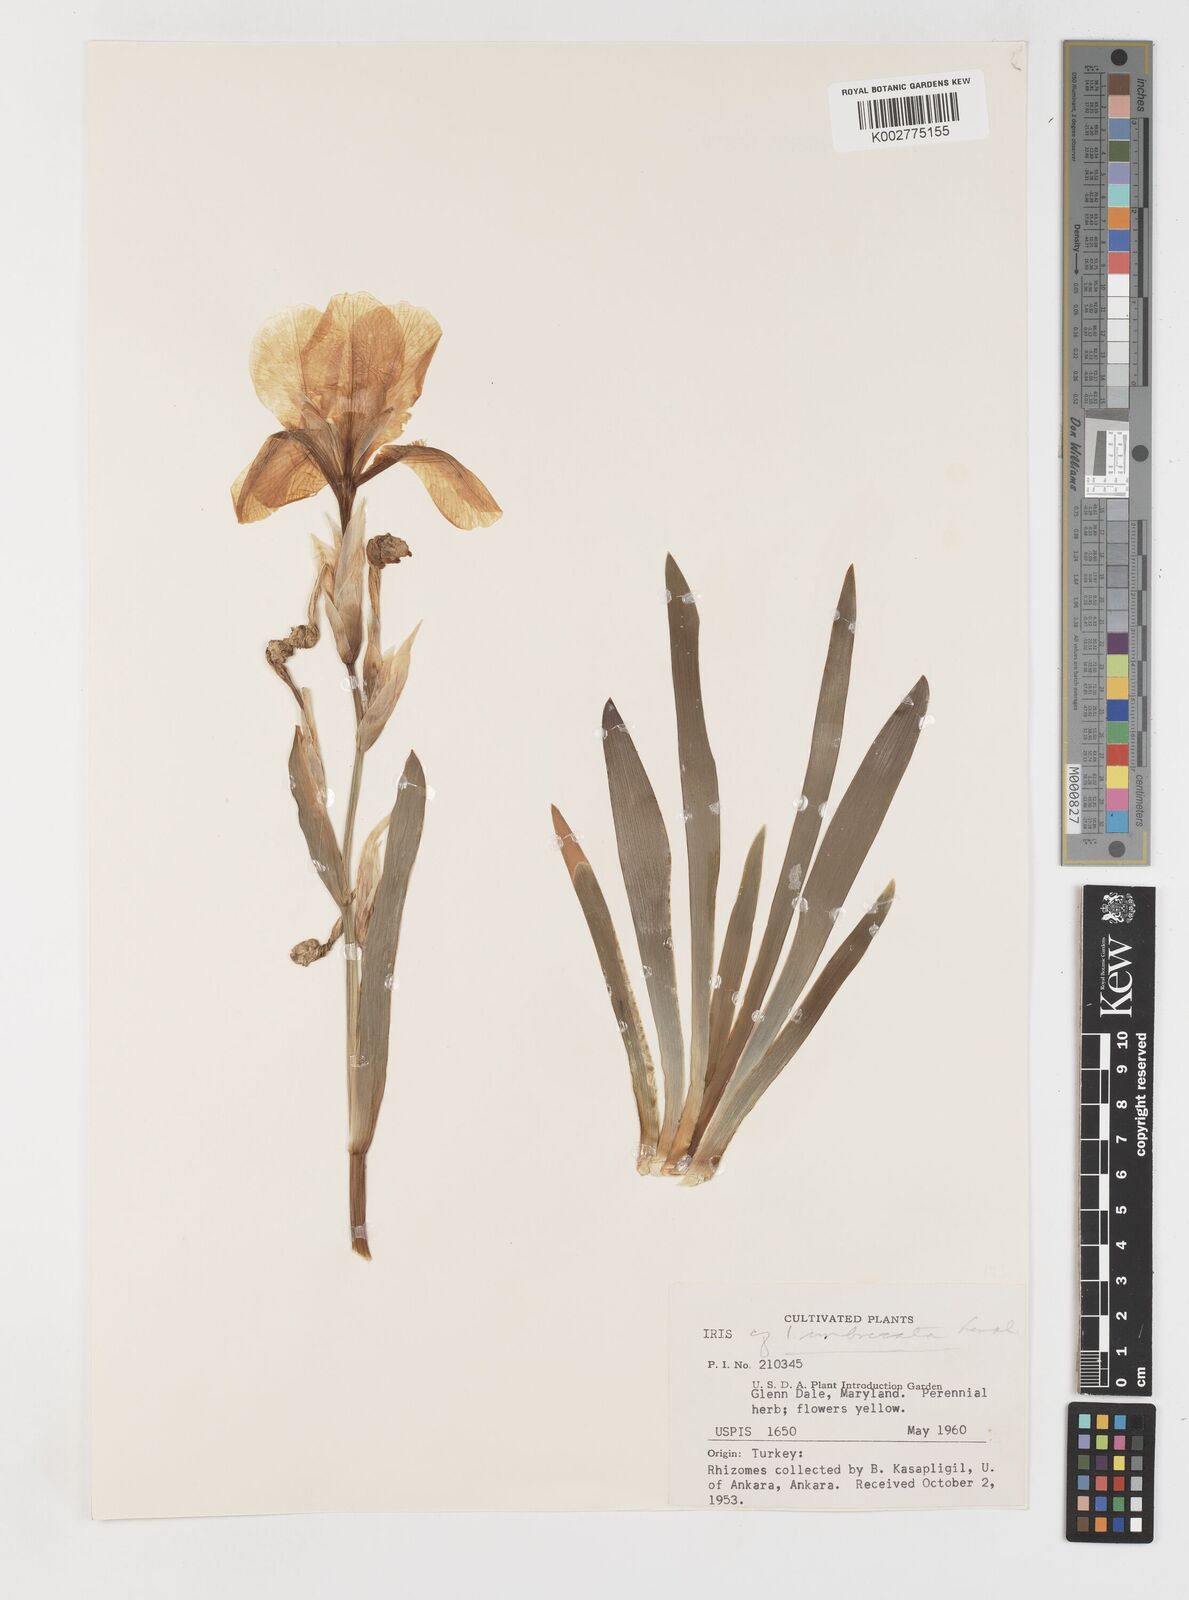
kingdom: Plantae
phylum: Tracheophyta
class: Liliopsida
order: Asparagales
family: Iridaceae
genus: Iris
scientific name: Iris schachtii
